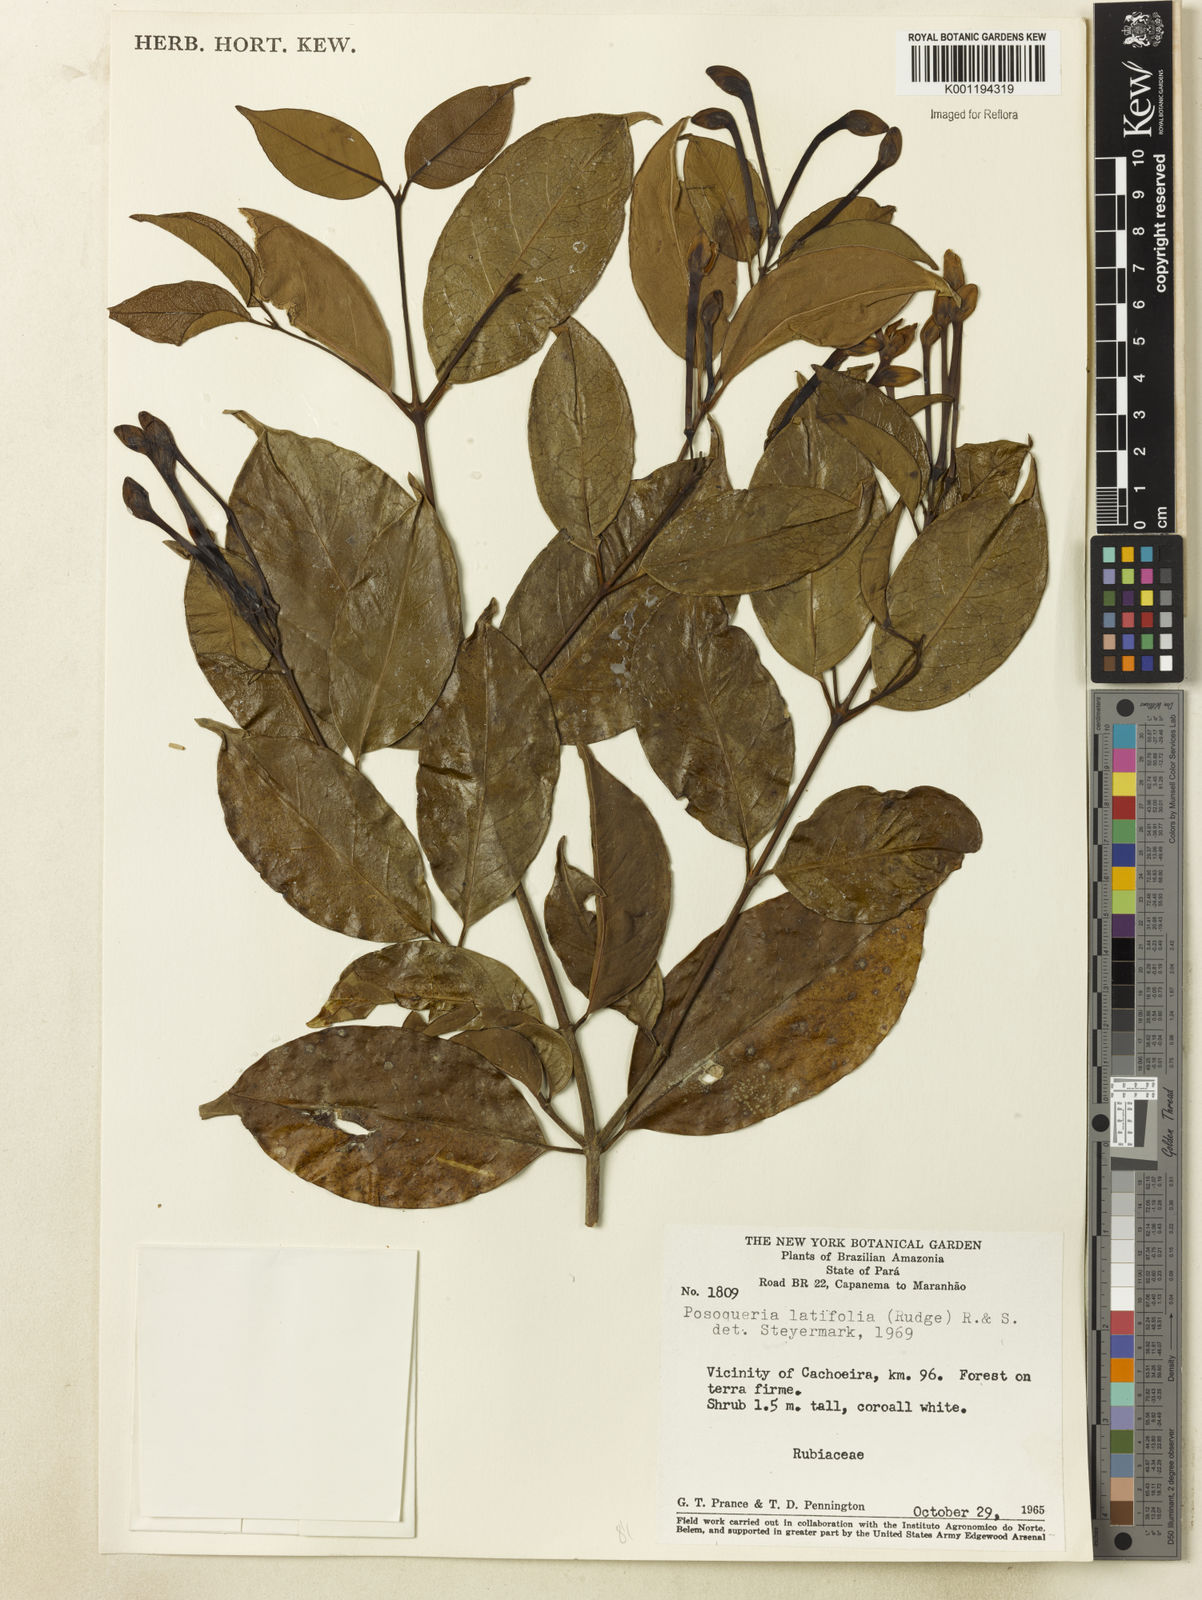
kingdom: Plantae
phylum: Tracheophyta
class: Magnoliopsida
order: Gentianales
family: Rubiaceae
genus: Posoqueria
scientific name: Posoqueria latifolia
